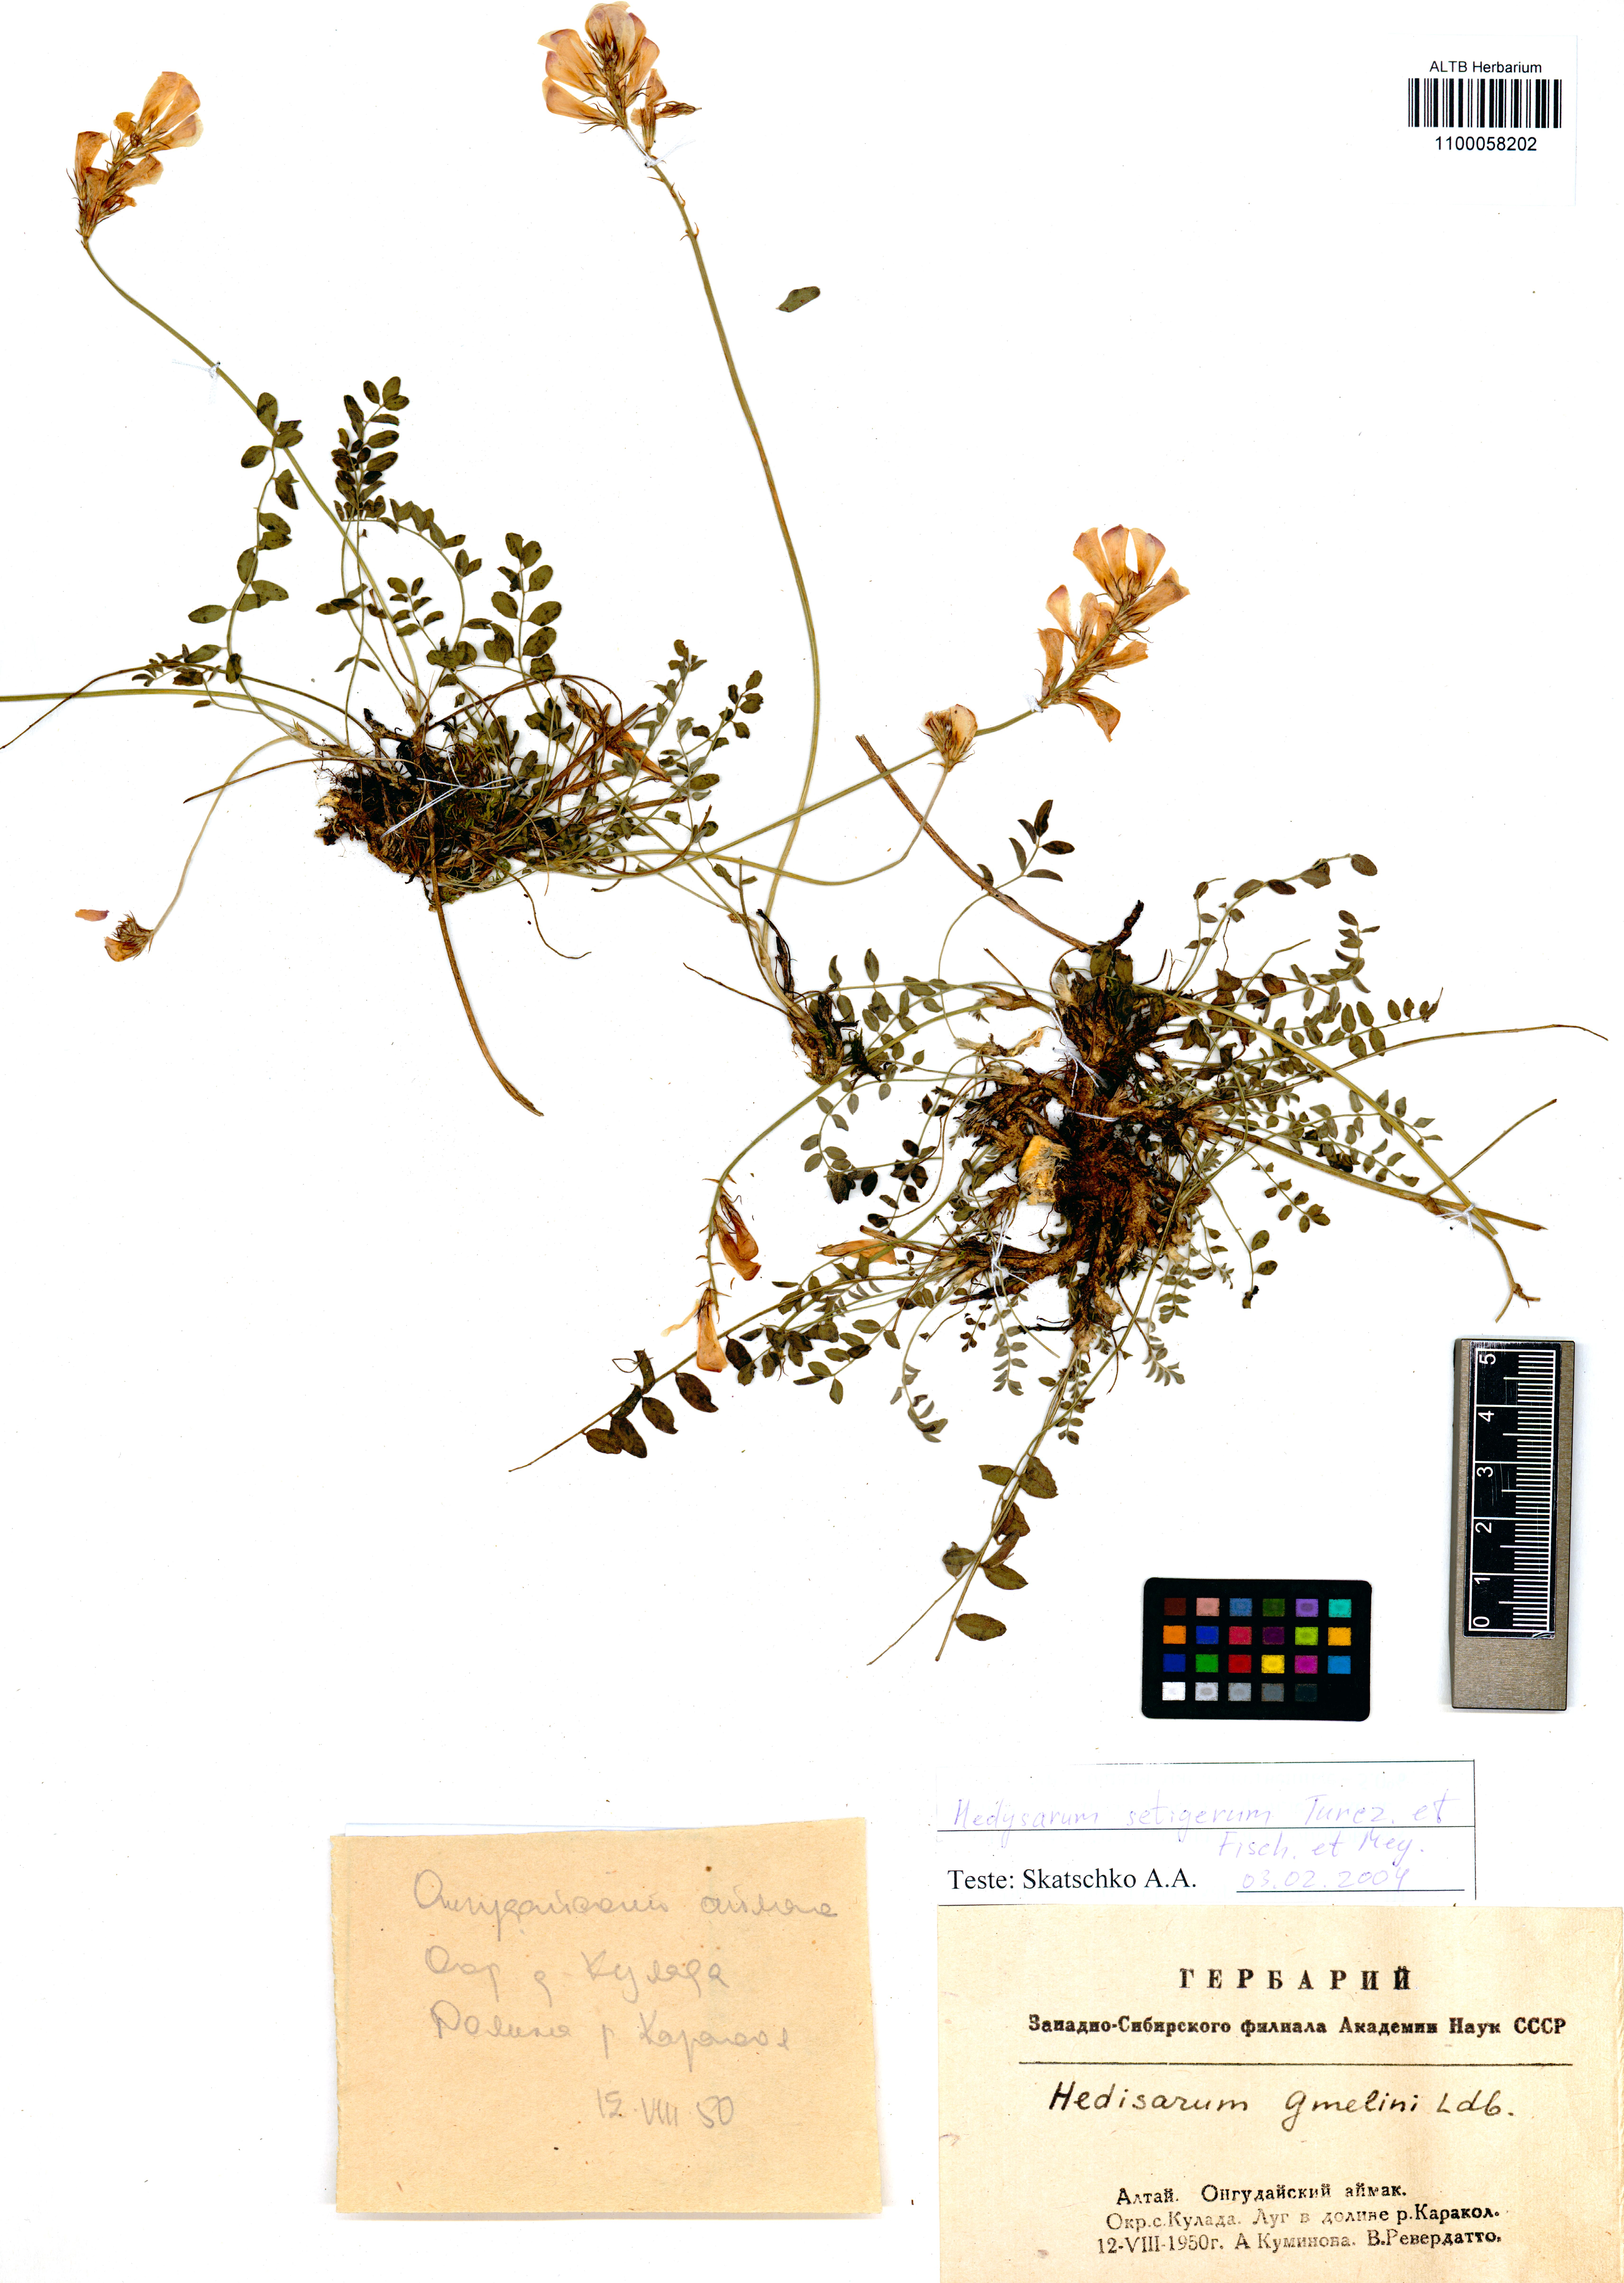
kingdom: Plantae
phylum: Tracheophyta
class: Magnoliopsida
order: Fabales
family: Fabaceae
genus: Hedysarum
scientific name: Hedysarum setigerum
